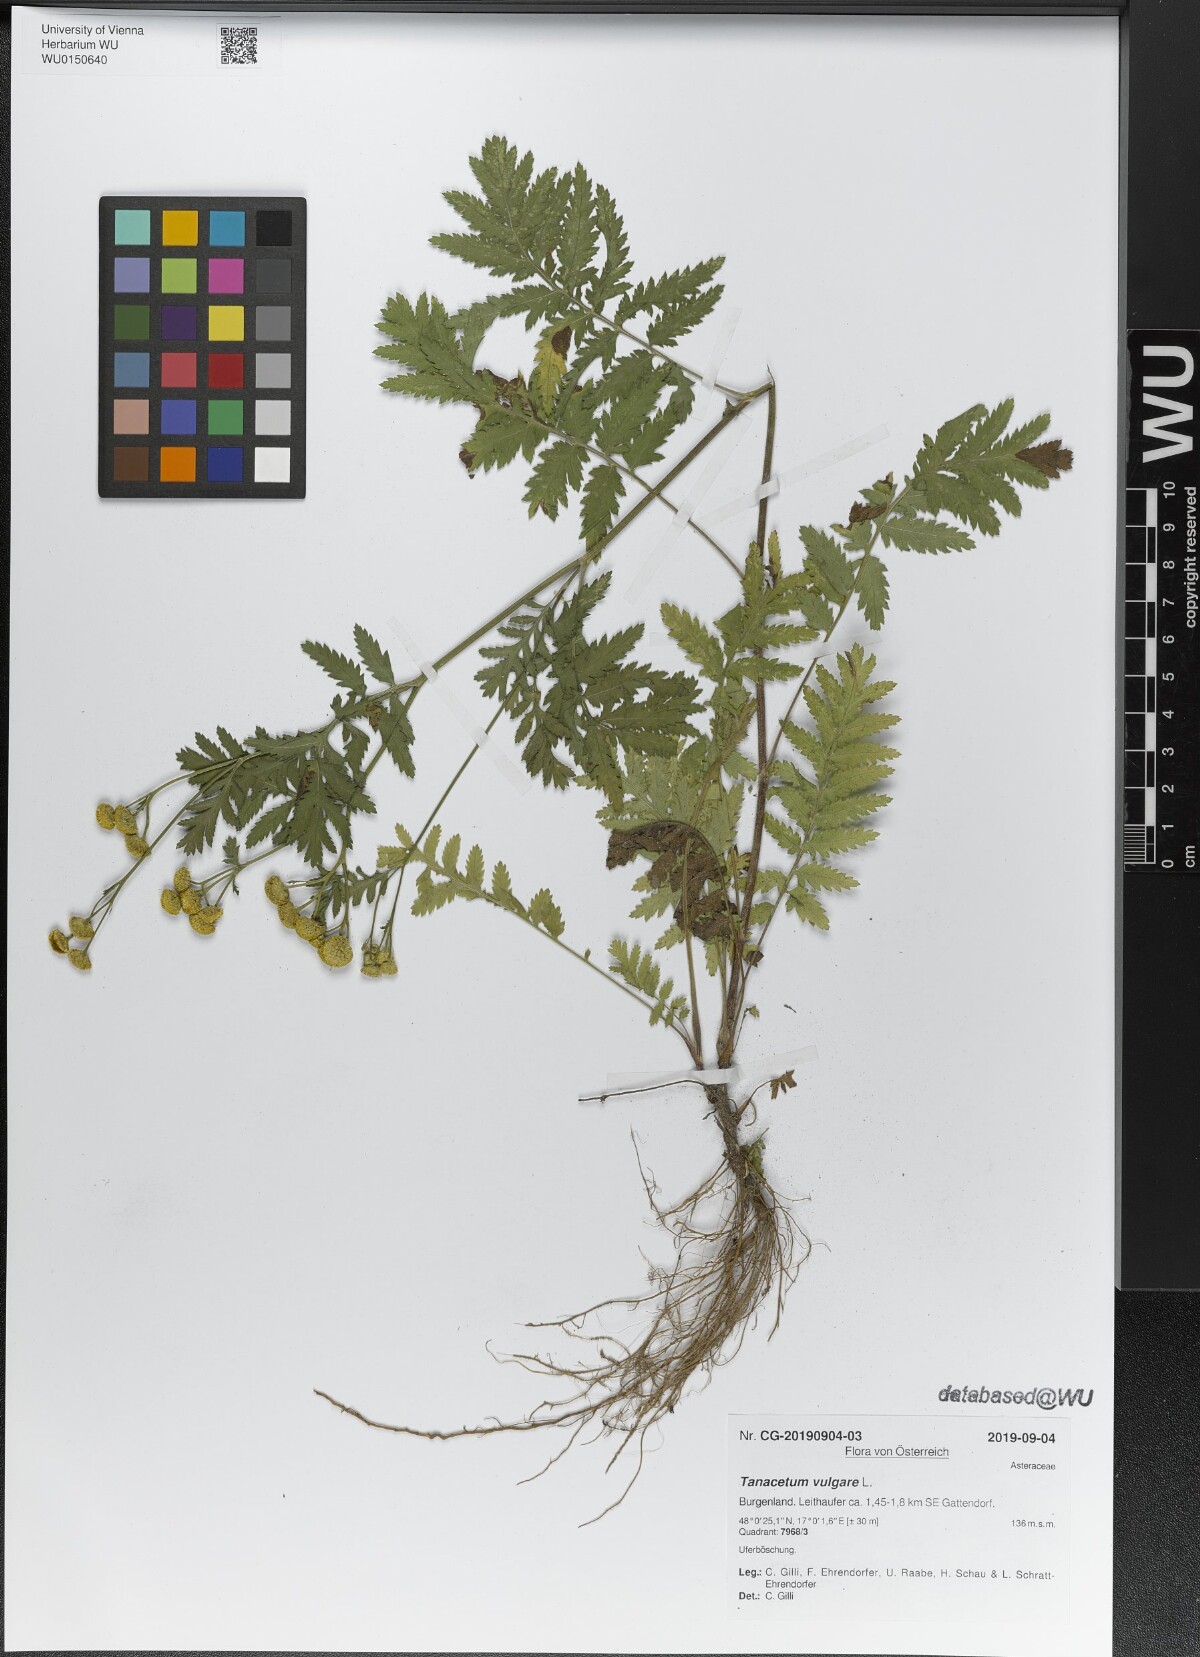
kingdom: Plantae
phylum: Tracheophyta
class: Magnoliopsida
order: Asterales
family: Asteraceae
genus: Tanacetum
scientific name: Tanacetum vulgare
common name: Common tansy
